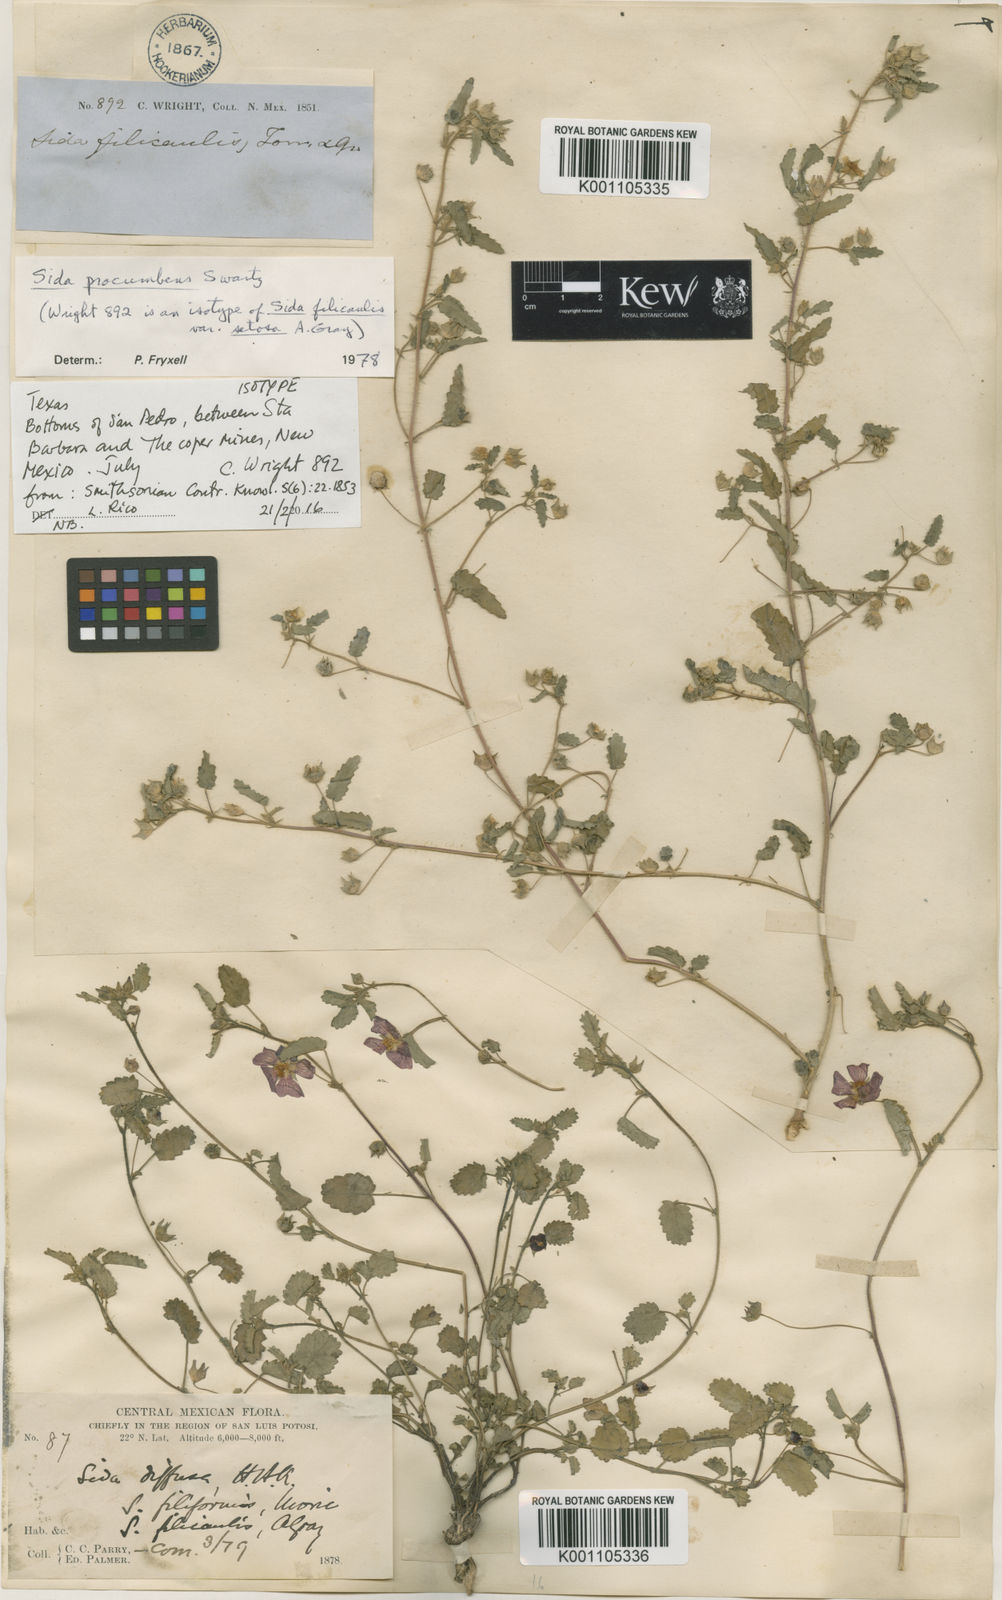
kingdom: Plantae
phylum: Tracheophyta
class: Magnoliopsida
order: Malvales
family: Malvaceae
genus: Sida
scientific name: Sida abutilifolia
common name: Spreading fanpetals
